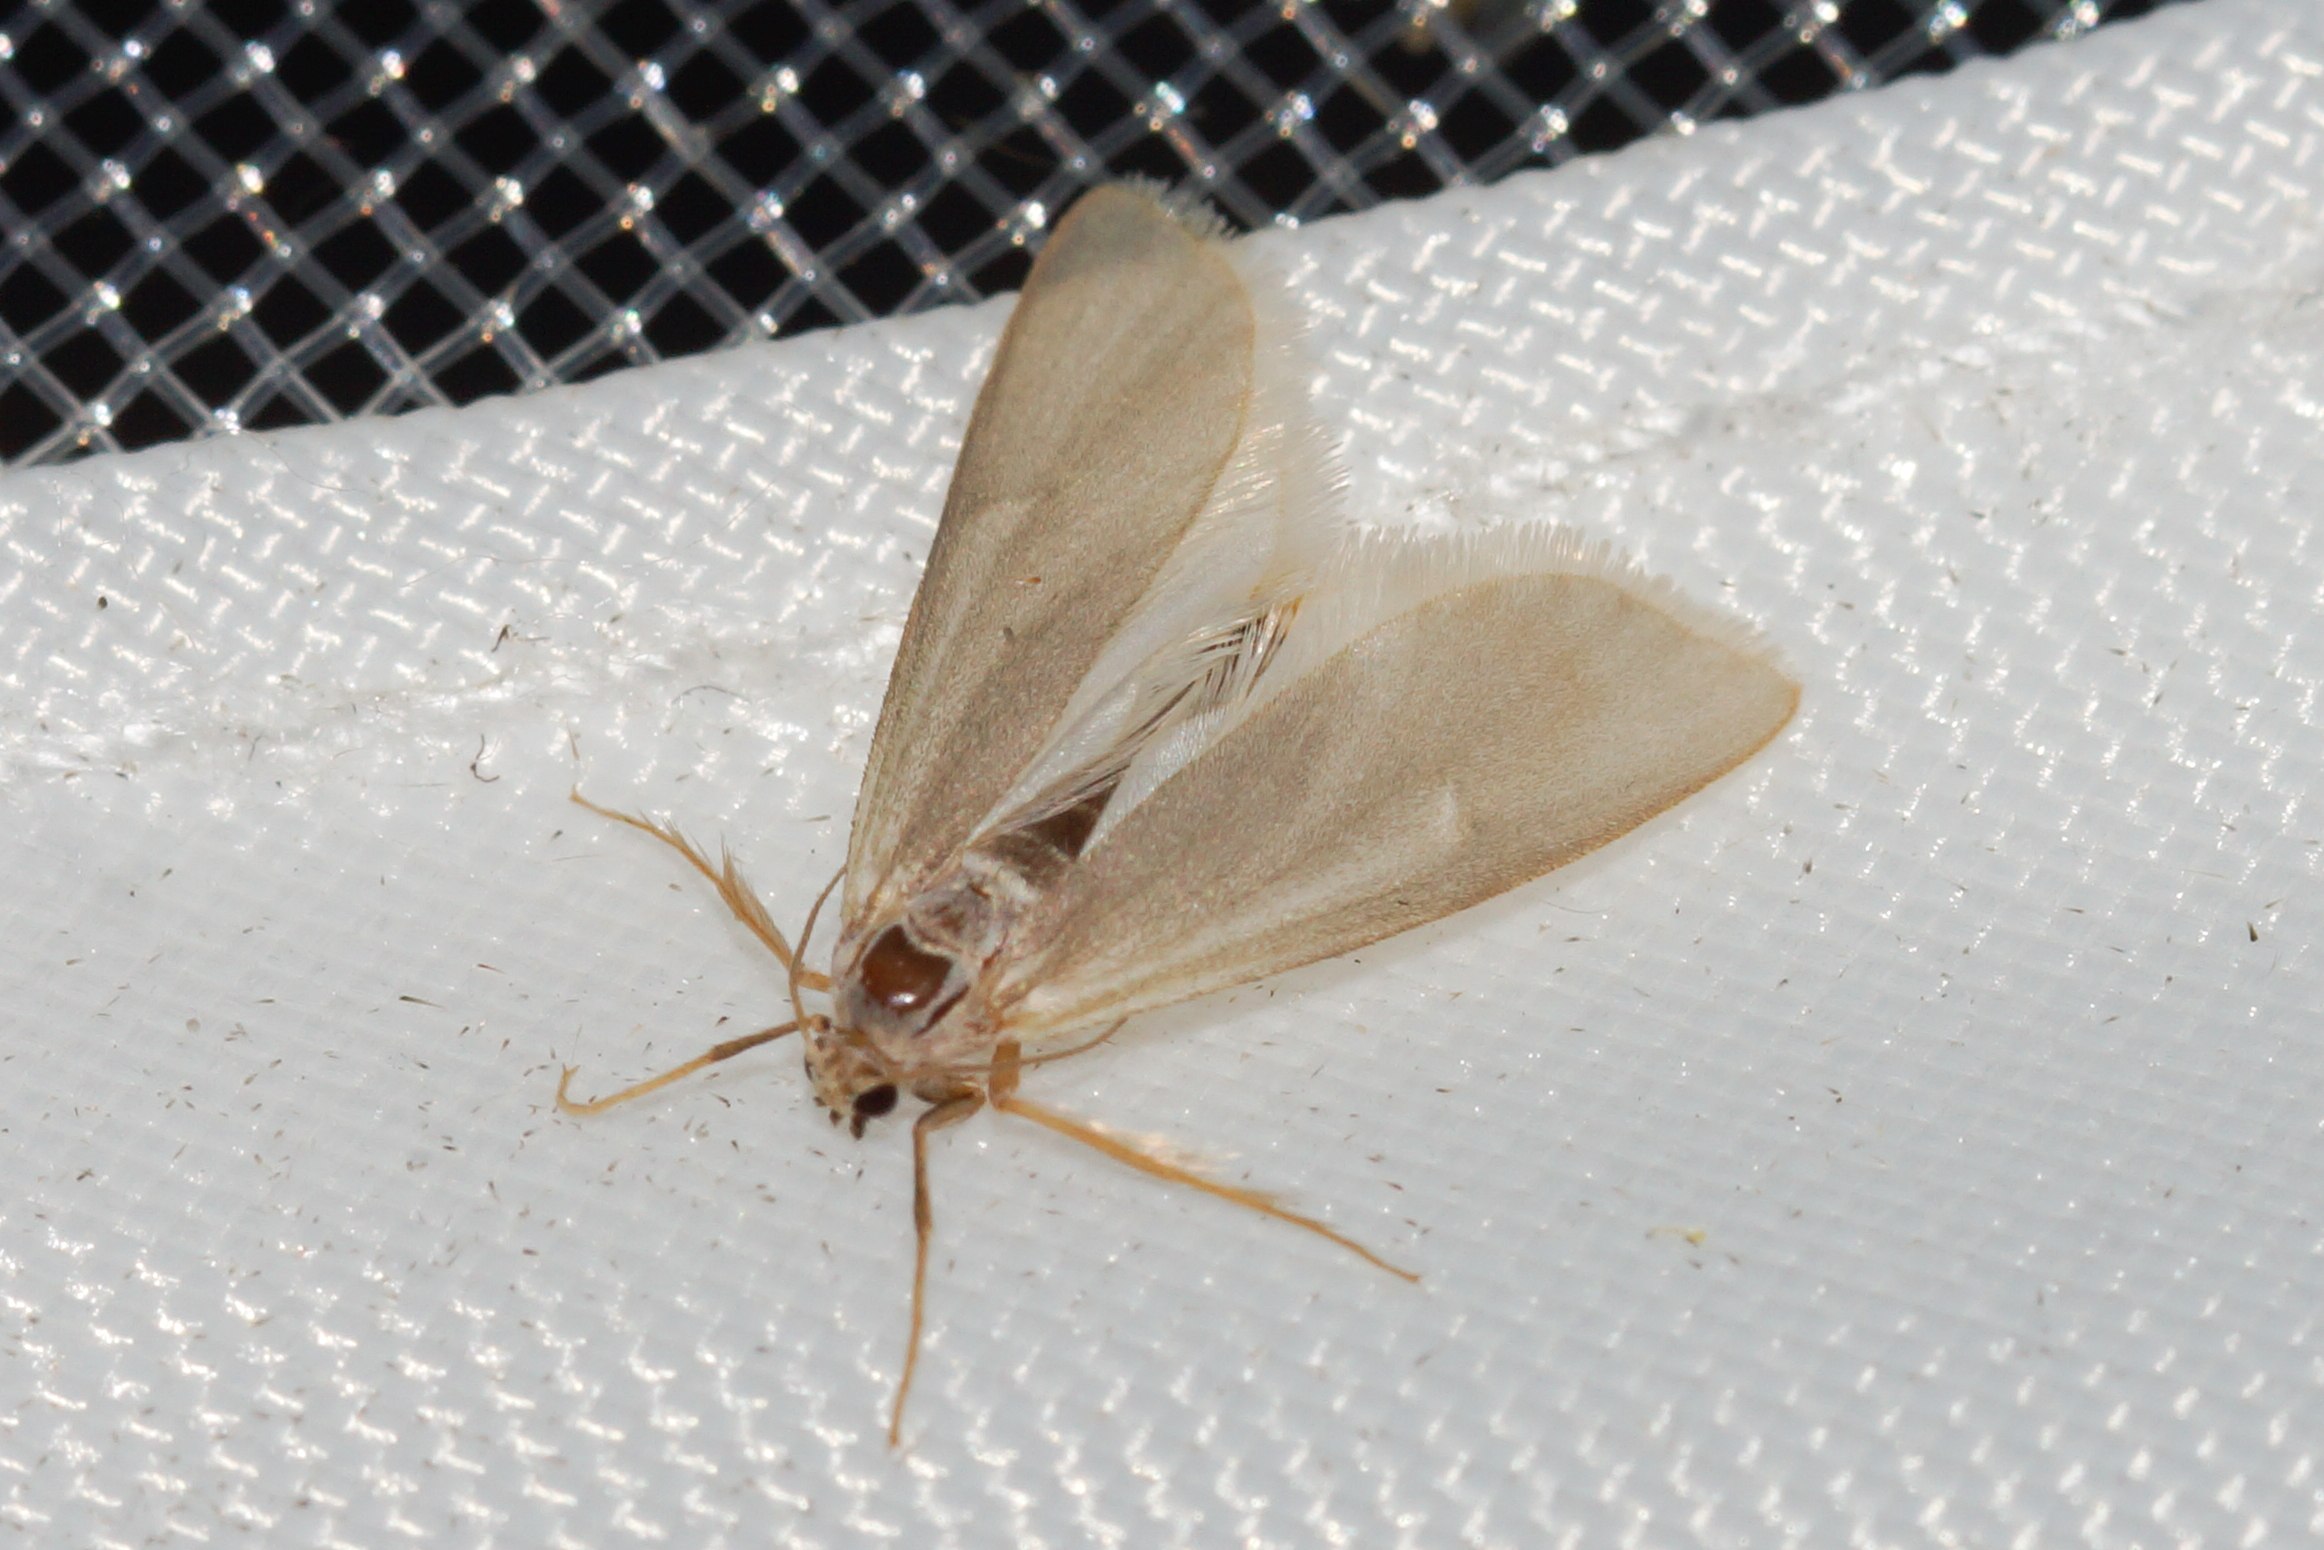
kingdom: Animalia
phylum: Arthropoda
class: Insecta
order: Lepidoptera
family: Crambidae
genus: Acentria
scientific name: Acentria ephemerella
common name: Vandmøl
